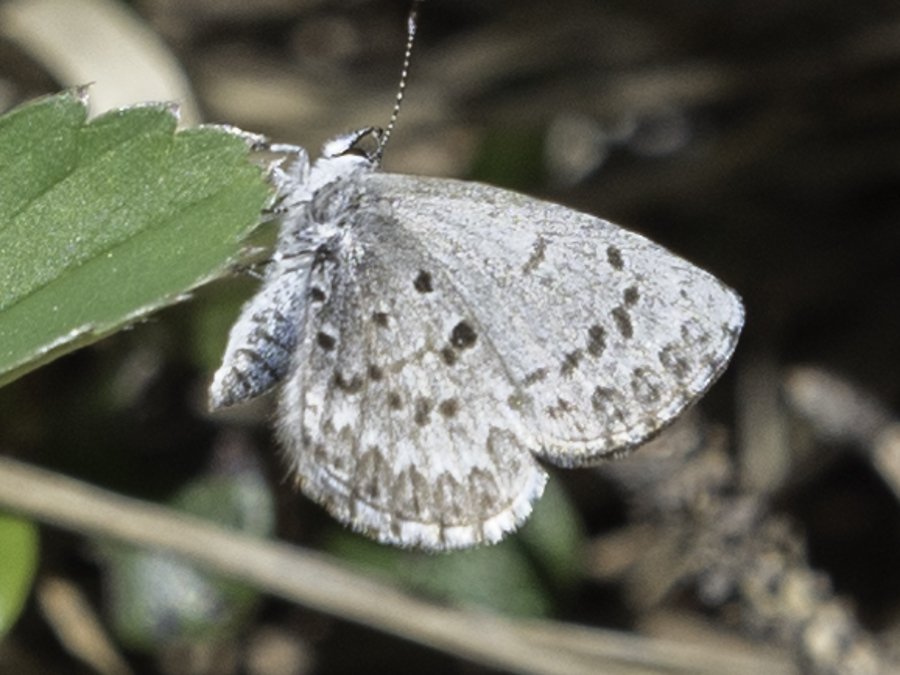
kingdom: Animalia
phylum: Arthropoda
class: Insecta
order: Lepidoptera
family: Lycaenidae
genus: Celastrina
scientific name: Celastrina lucia
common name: Northern Spring Azure
